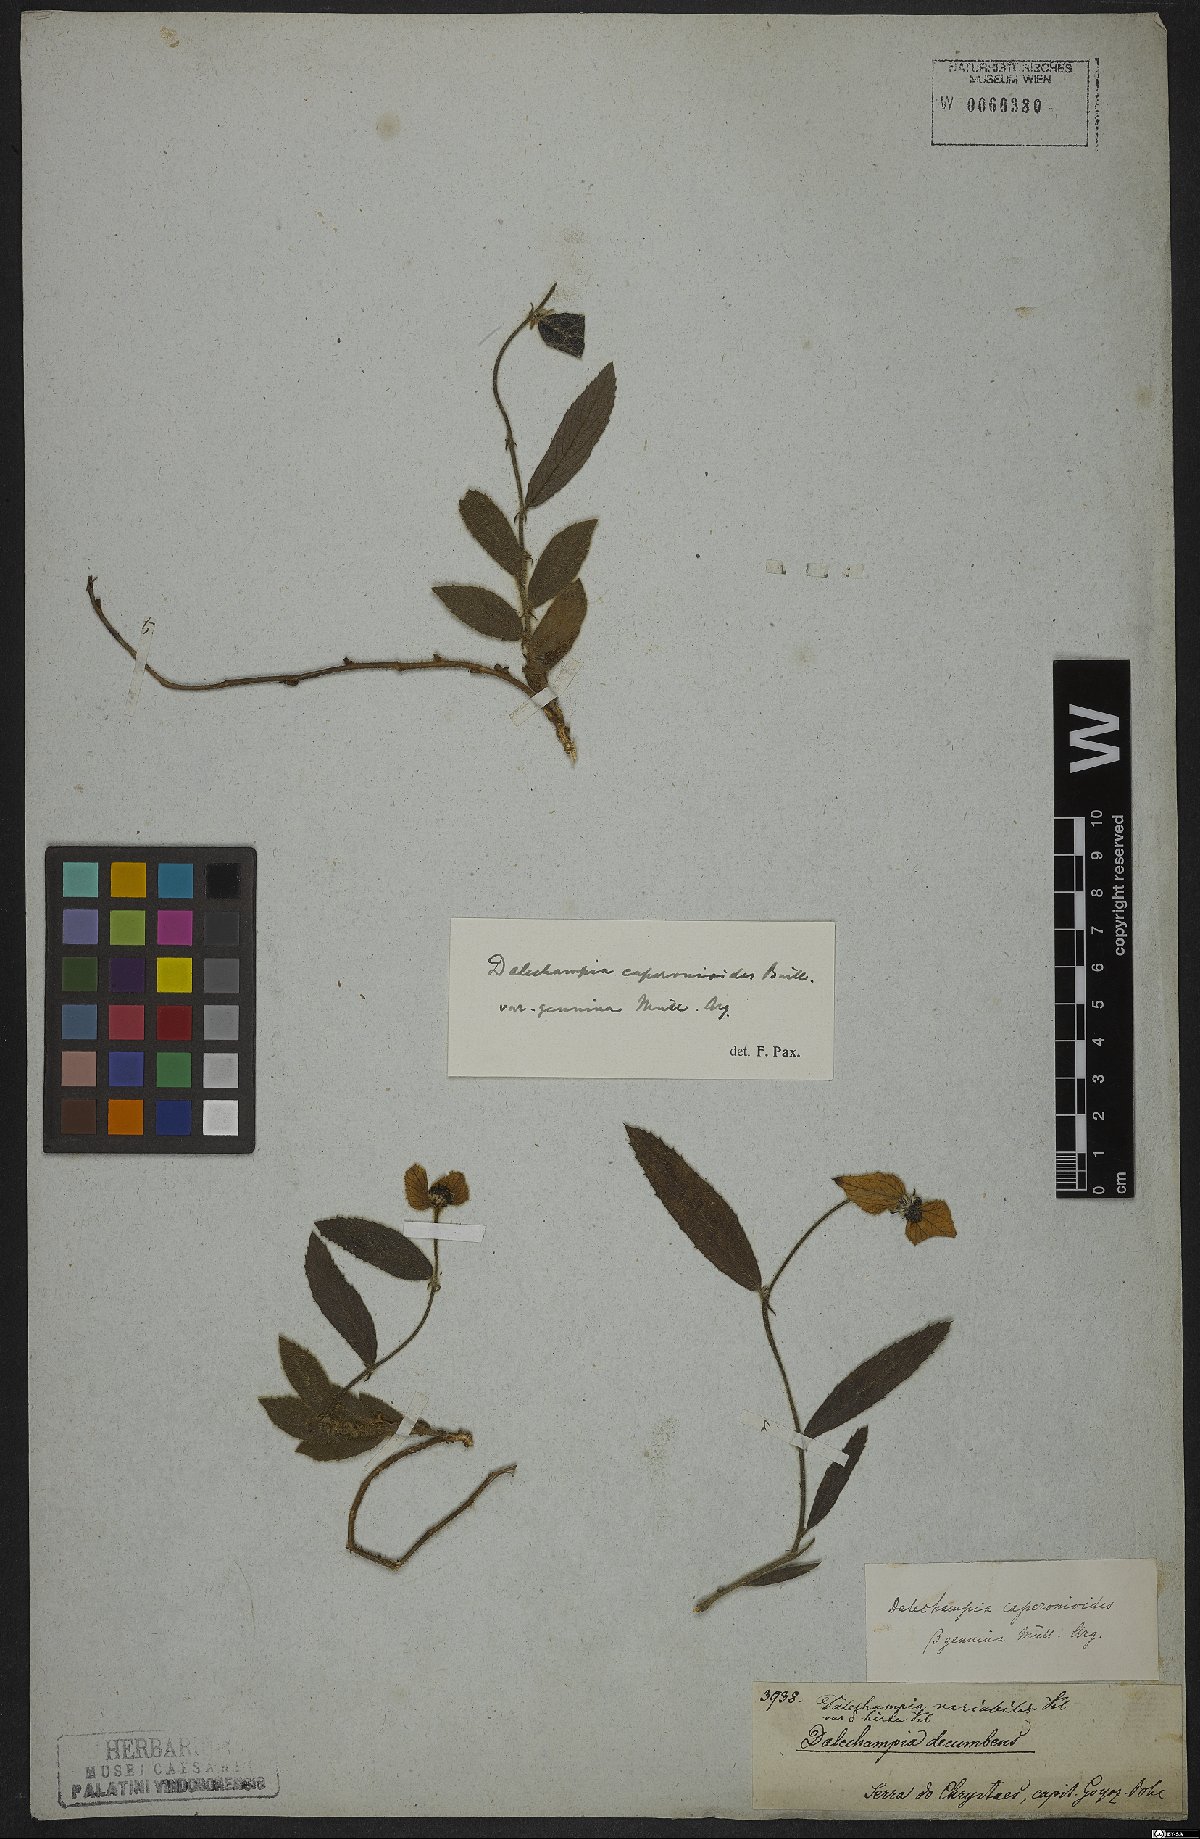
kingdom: Plantae
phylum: Tracheophyta
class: Magnoliopsida
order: Malpighiales
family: Euphorbiaceae
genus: Dalechampia
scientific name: Dalechampia caperonioides
